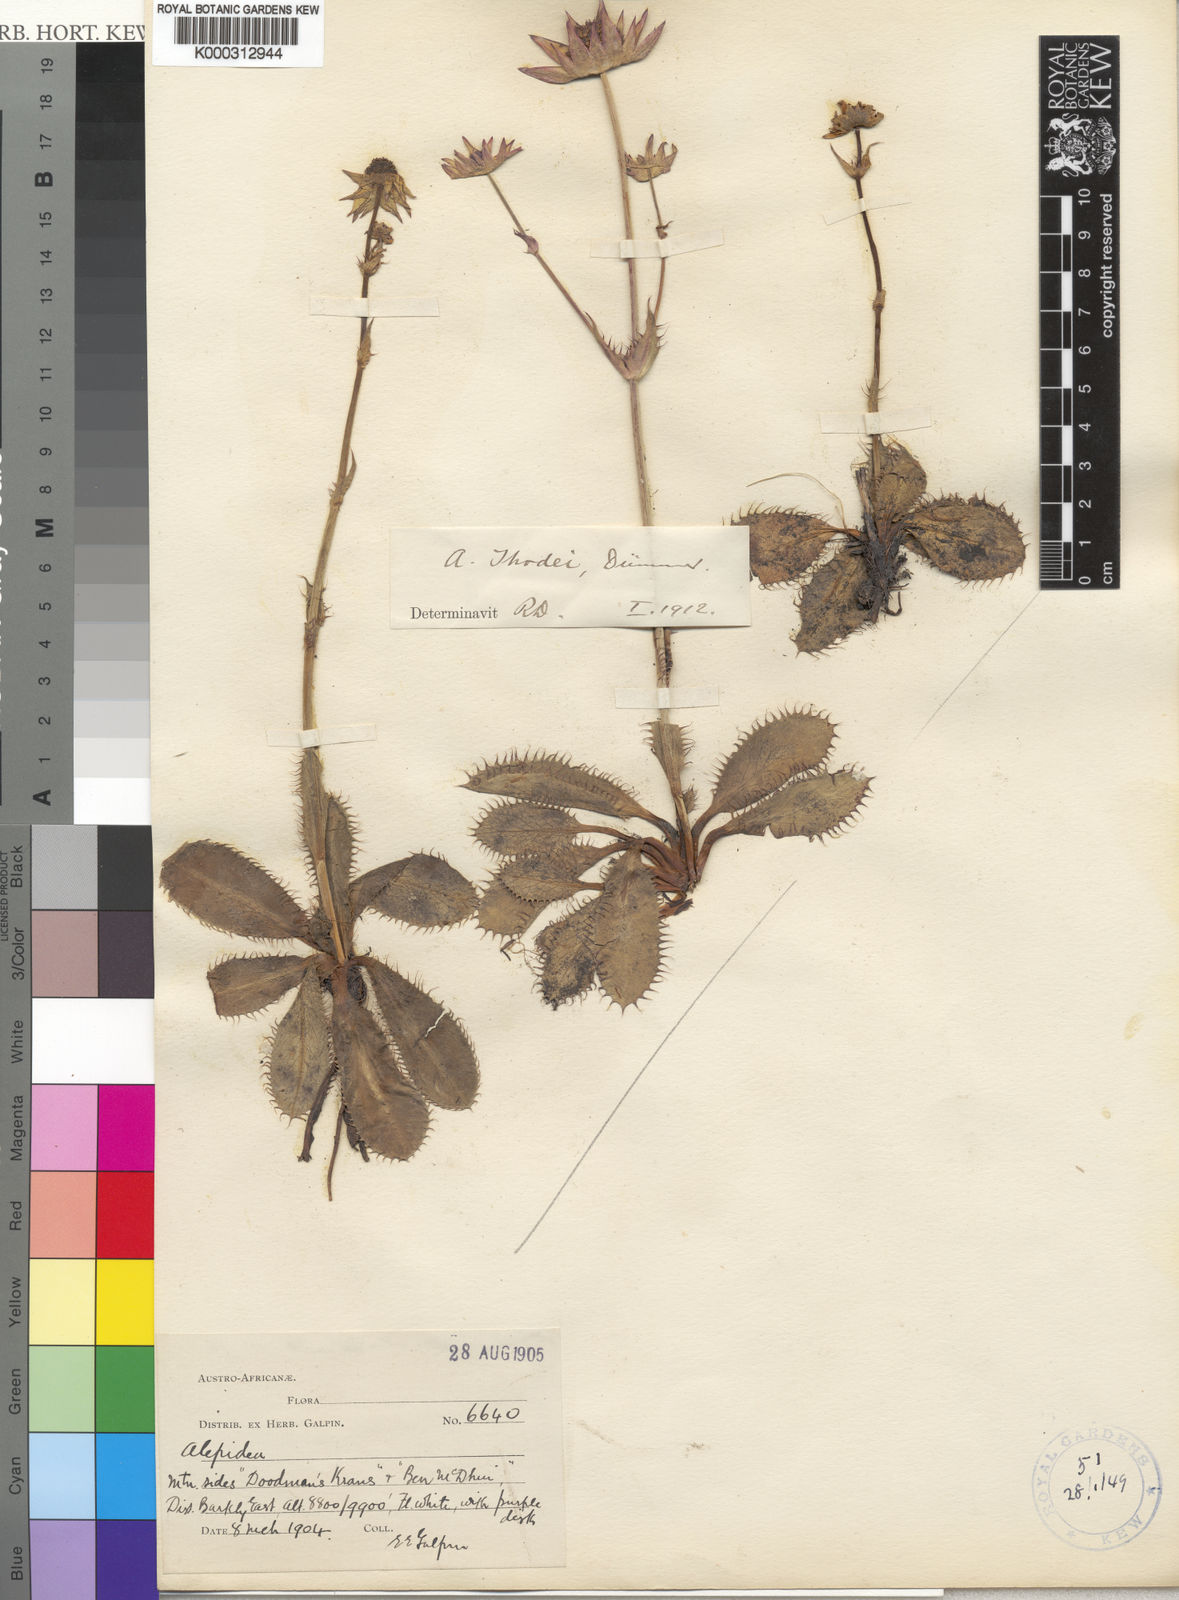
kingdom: Plantae
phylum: Tracheophyta
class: Magnoliopsida
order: Apiales
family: Apiaceae
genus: Alepidea
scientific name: Alepidea thodei
